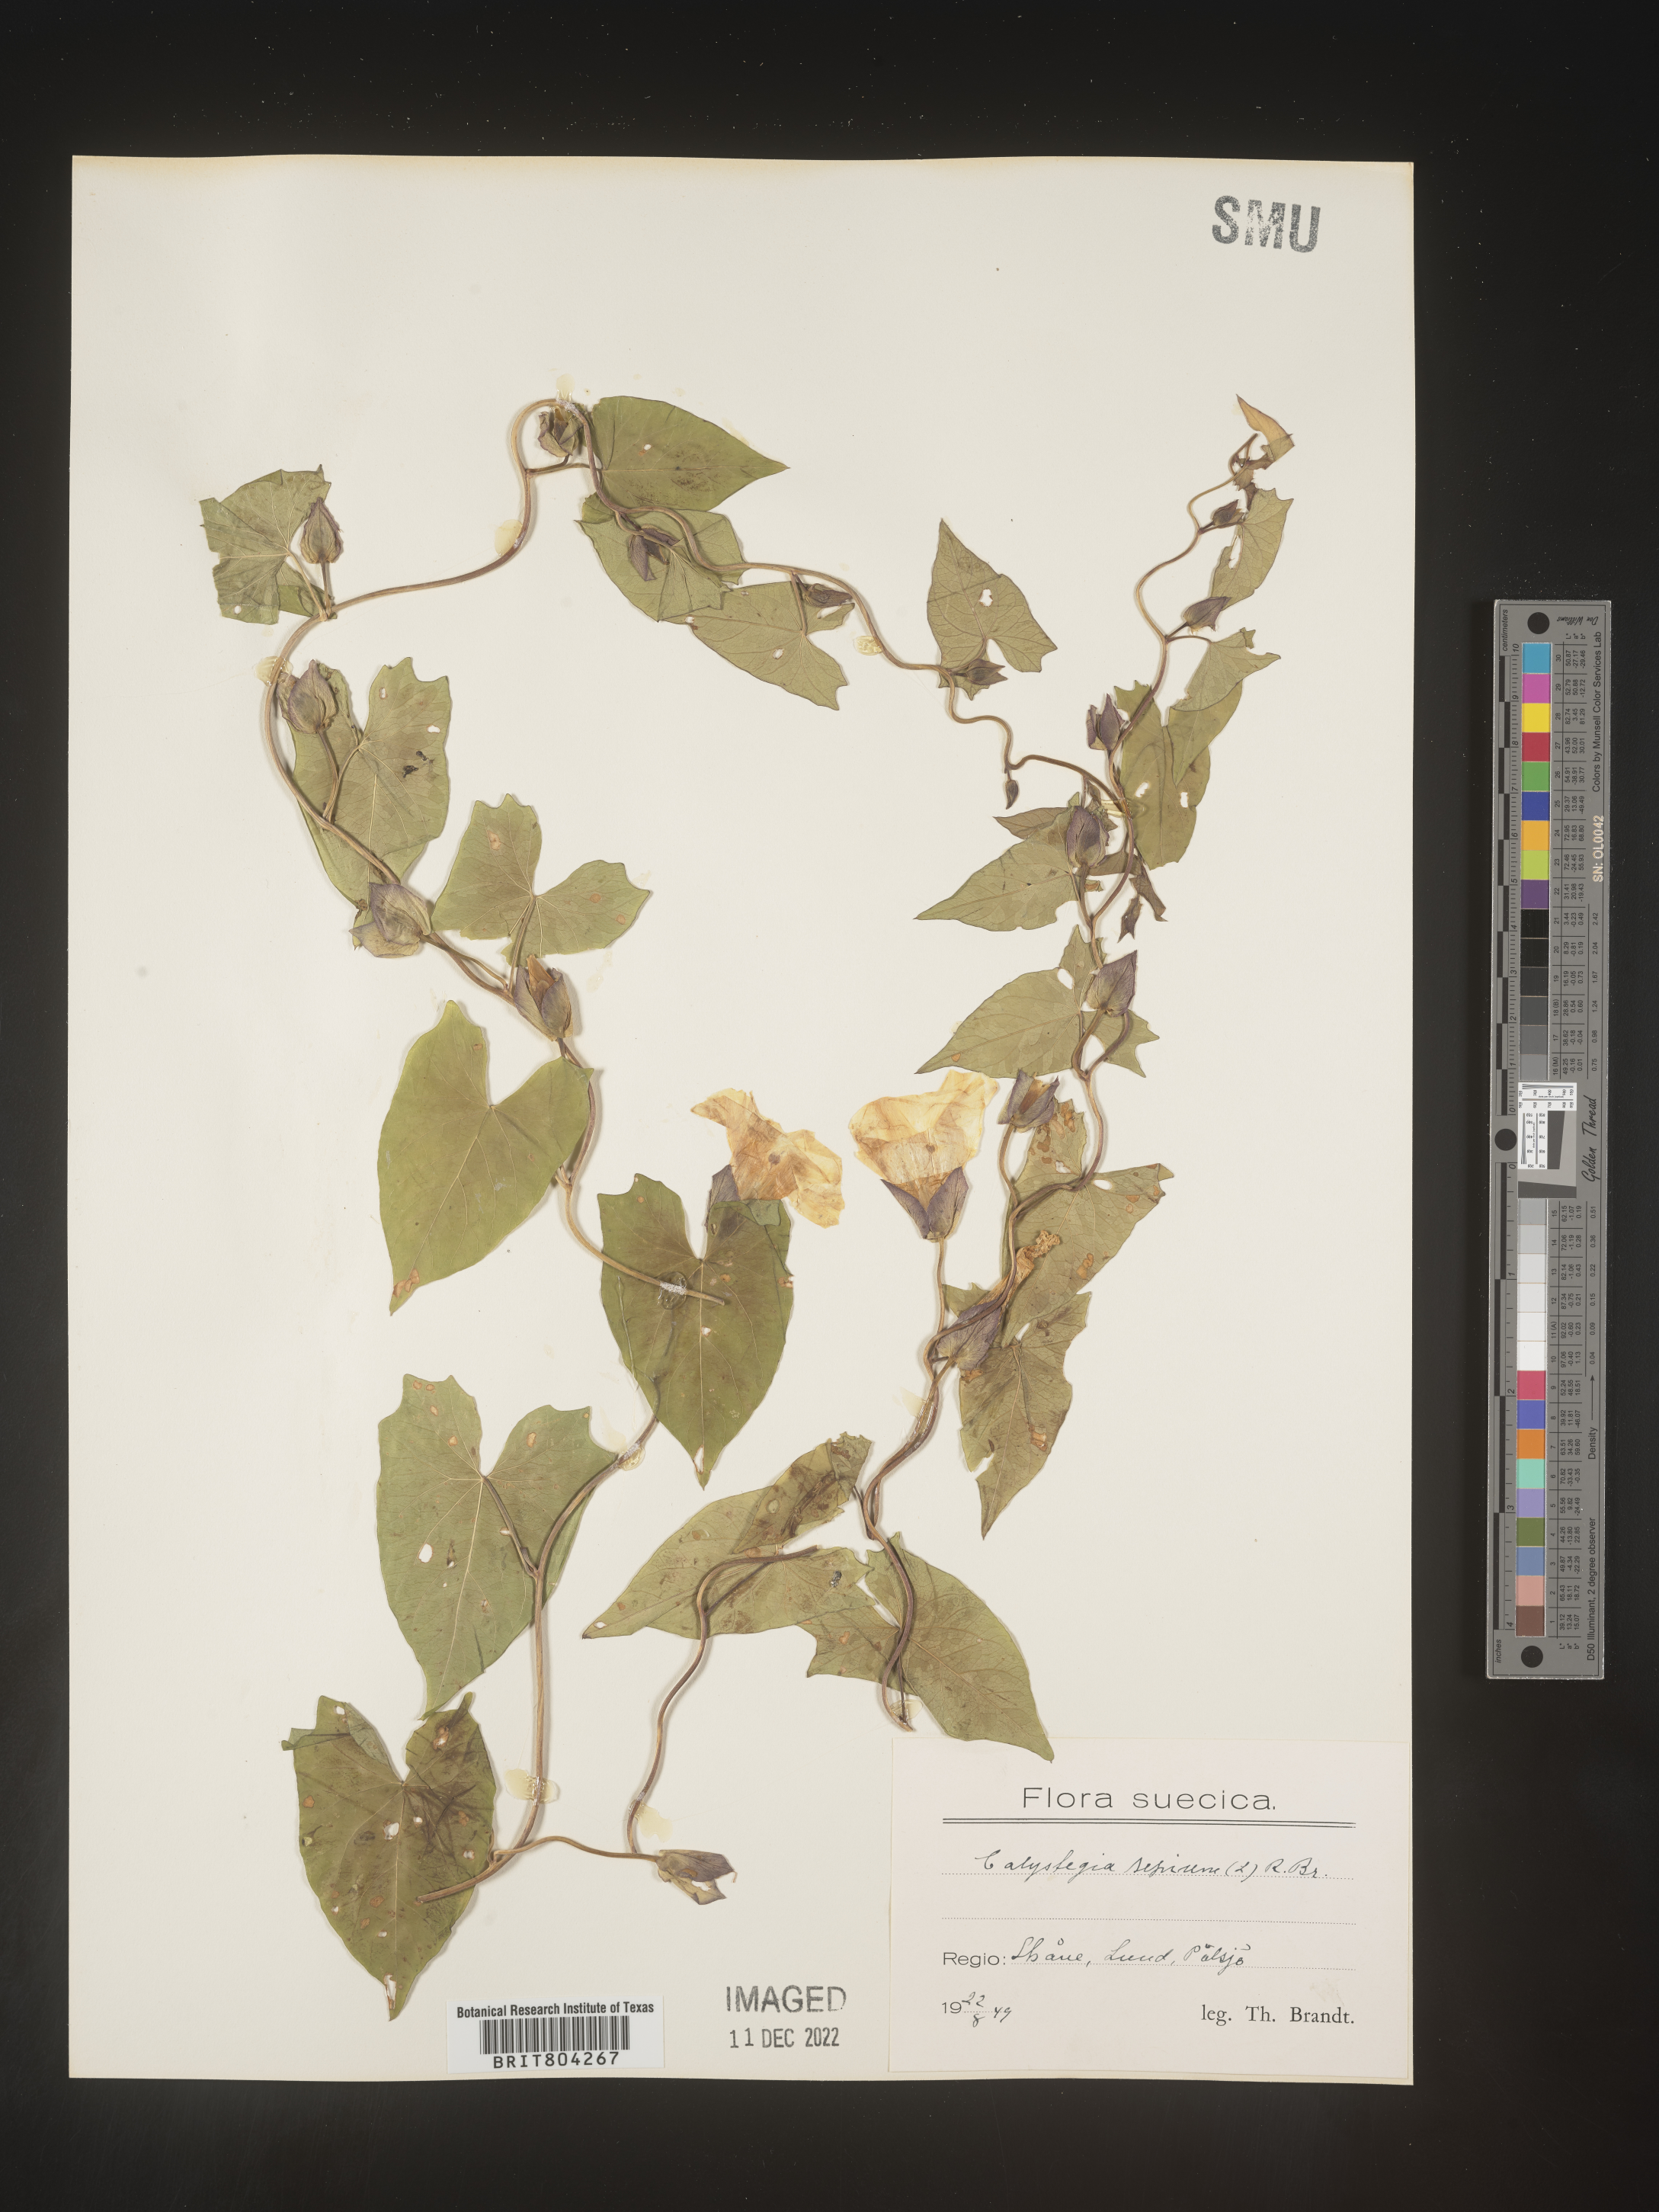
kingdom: Plantae
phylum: Tracheophyta
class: Magnoliopsida
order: Solanales
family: Convolvulaceae
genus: Calystegia
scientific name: Calystegia
